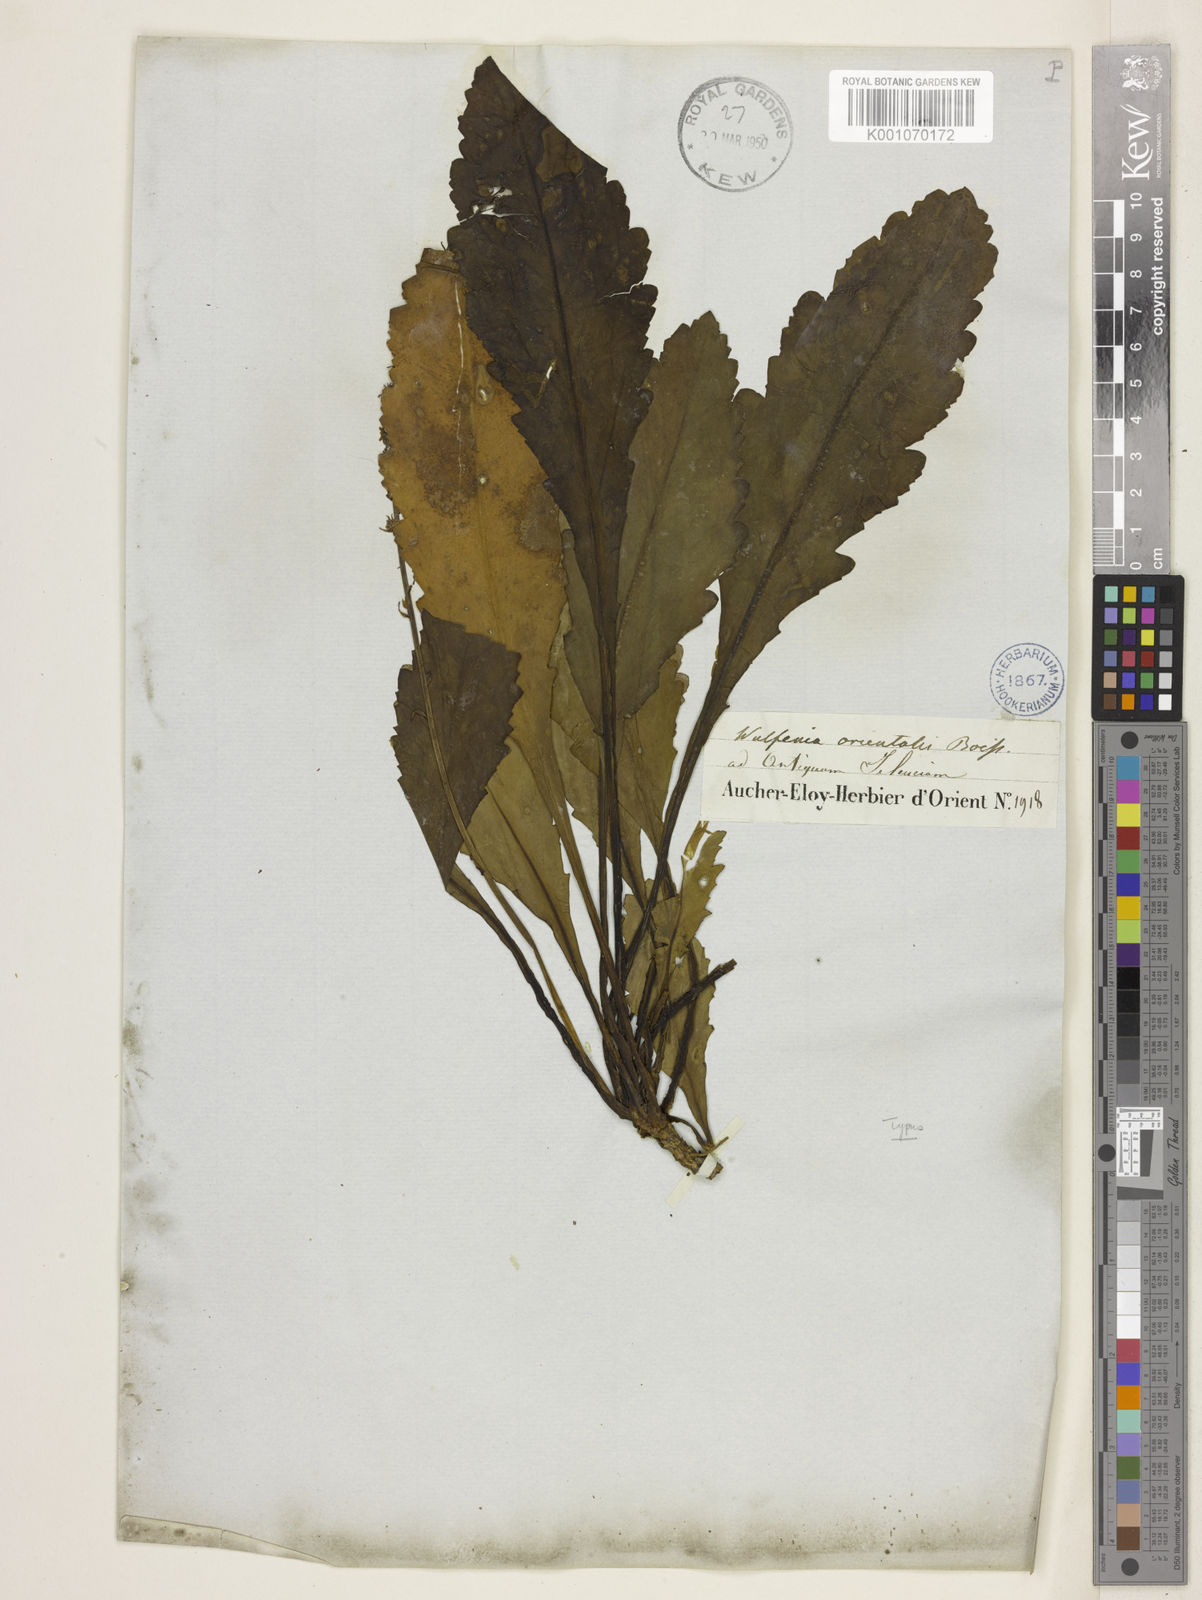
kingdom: Plantae
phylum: Tracheophyta
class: Magnoliopsida
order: Lamiales
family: Plantaginaceae
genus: Wulfenia
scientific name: Wulfenia orientalis
